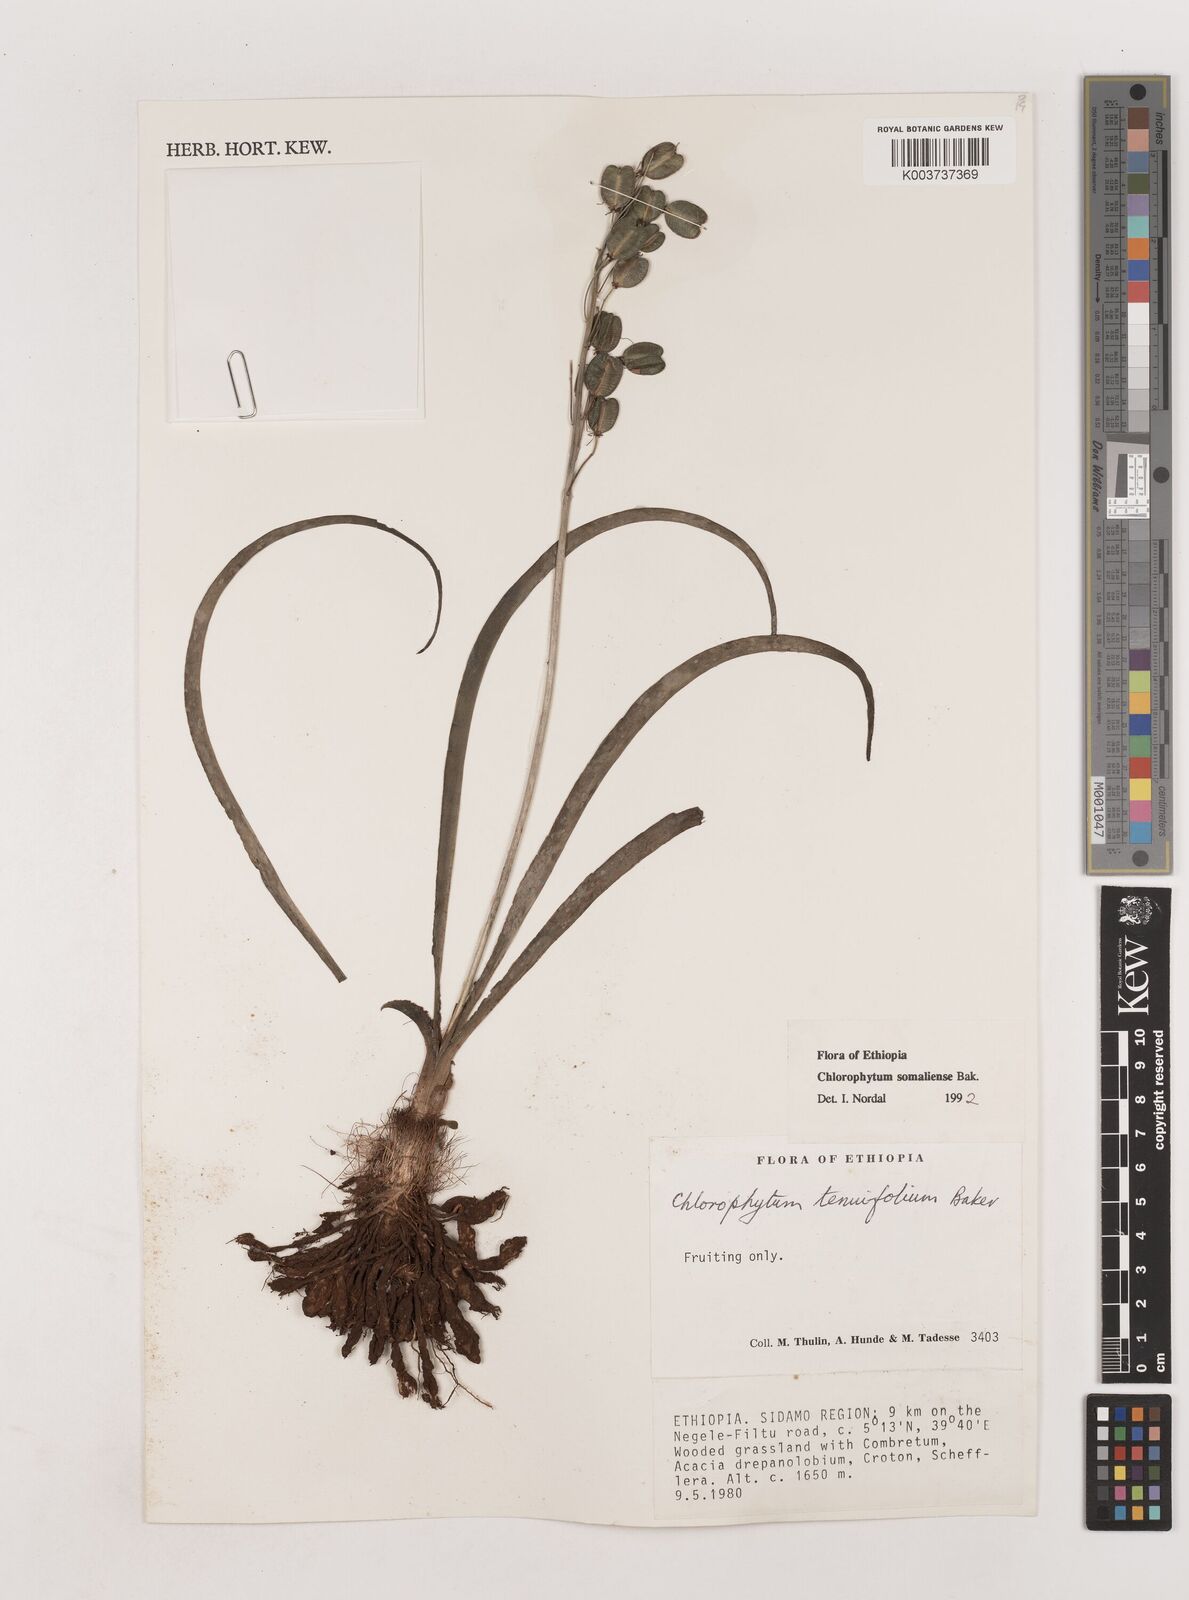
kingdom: Plantae
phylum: Tracheophyta
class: Liliopsida
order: Asparagales
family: Asparagaceae
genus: Chlorophytum
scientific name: Chlorophytum somaliense
